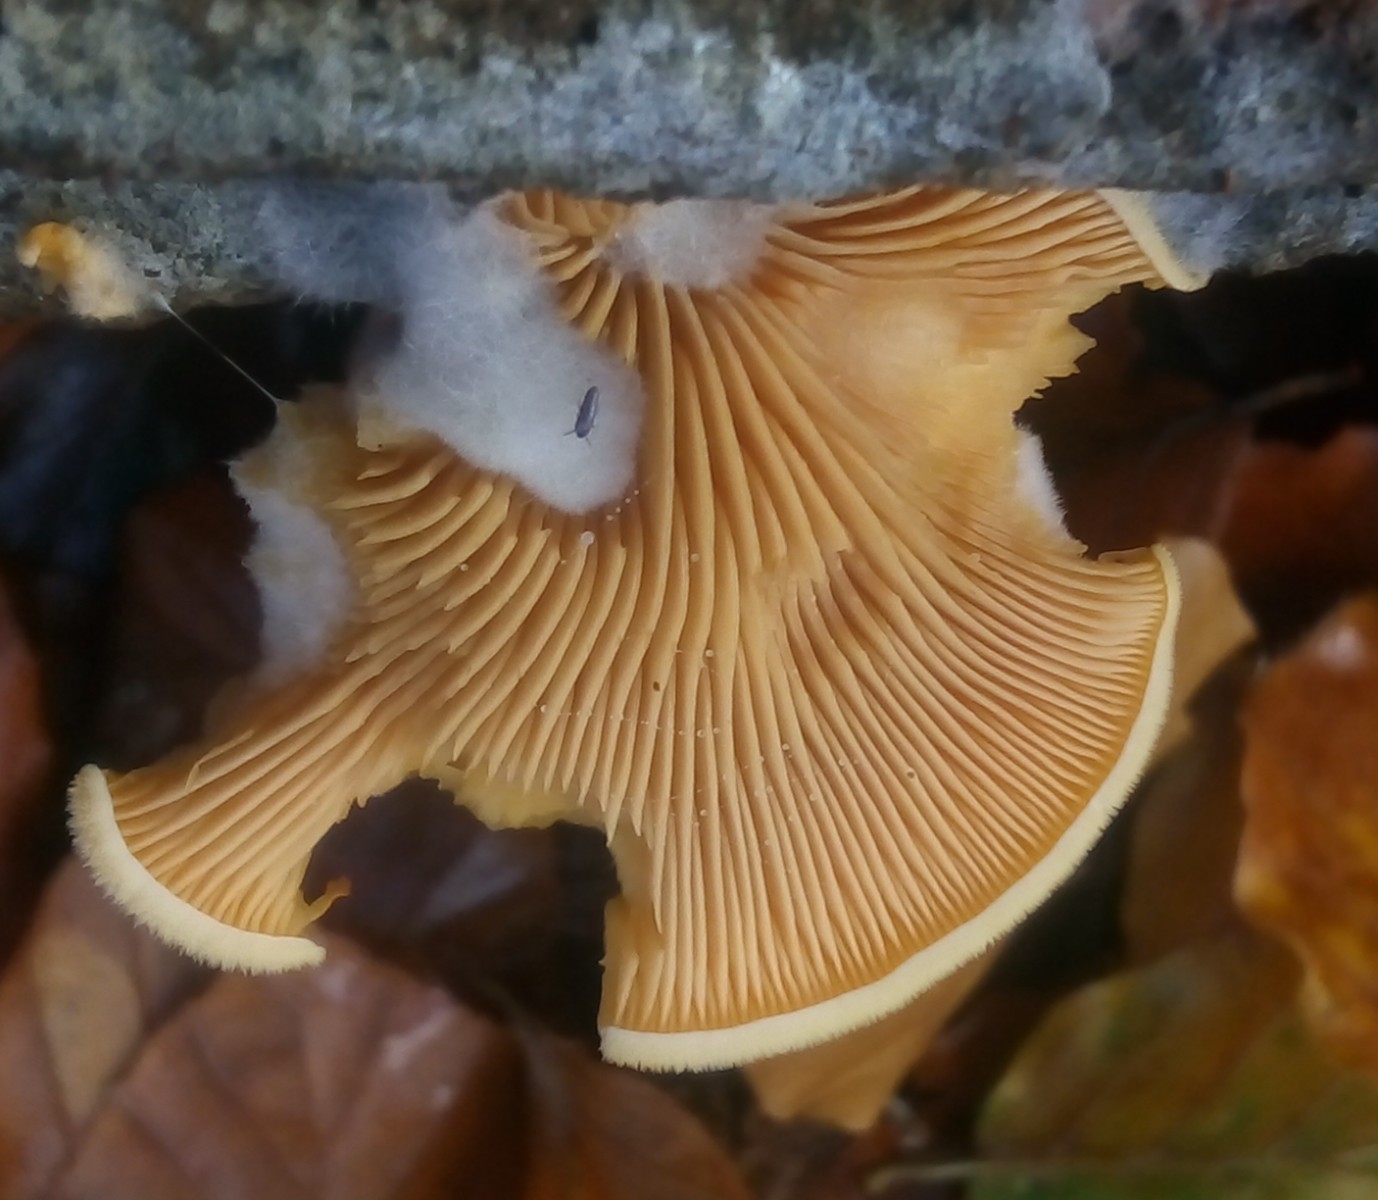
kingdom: Fungi
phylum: Basidiomycota
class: Agaricomycetes
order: Agaricales
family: Phyllotopsidaceae
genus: Phyllotopsis
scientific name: Phyllotopsis nidulans
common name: okkerblad
